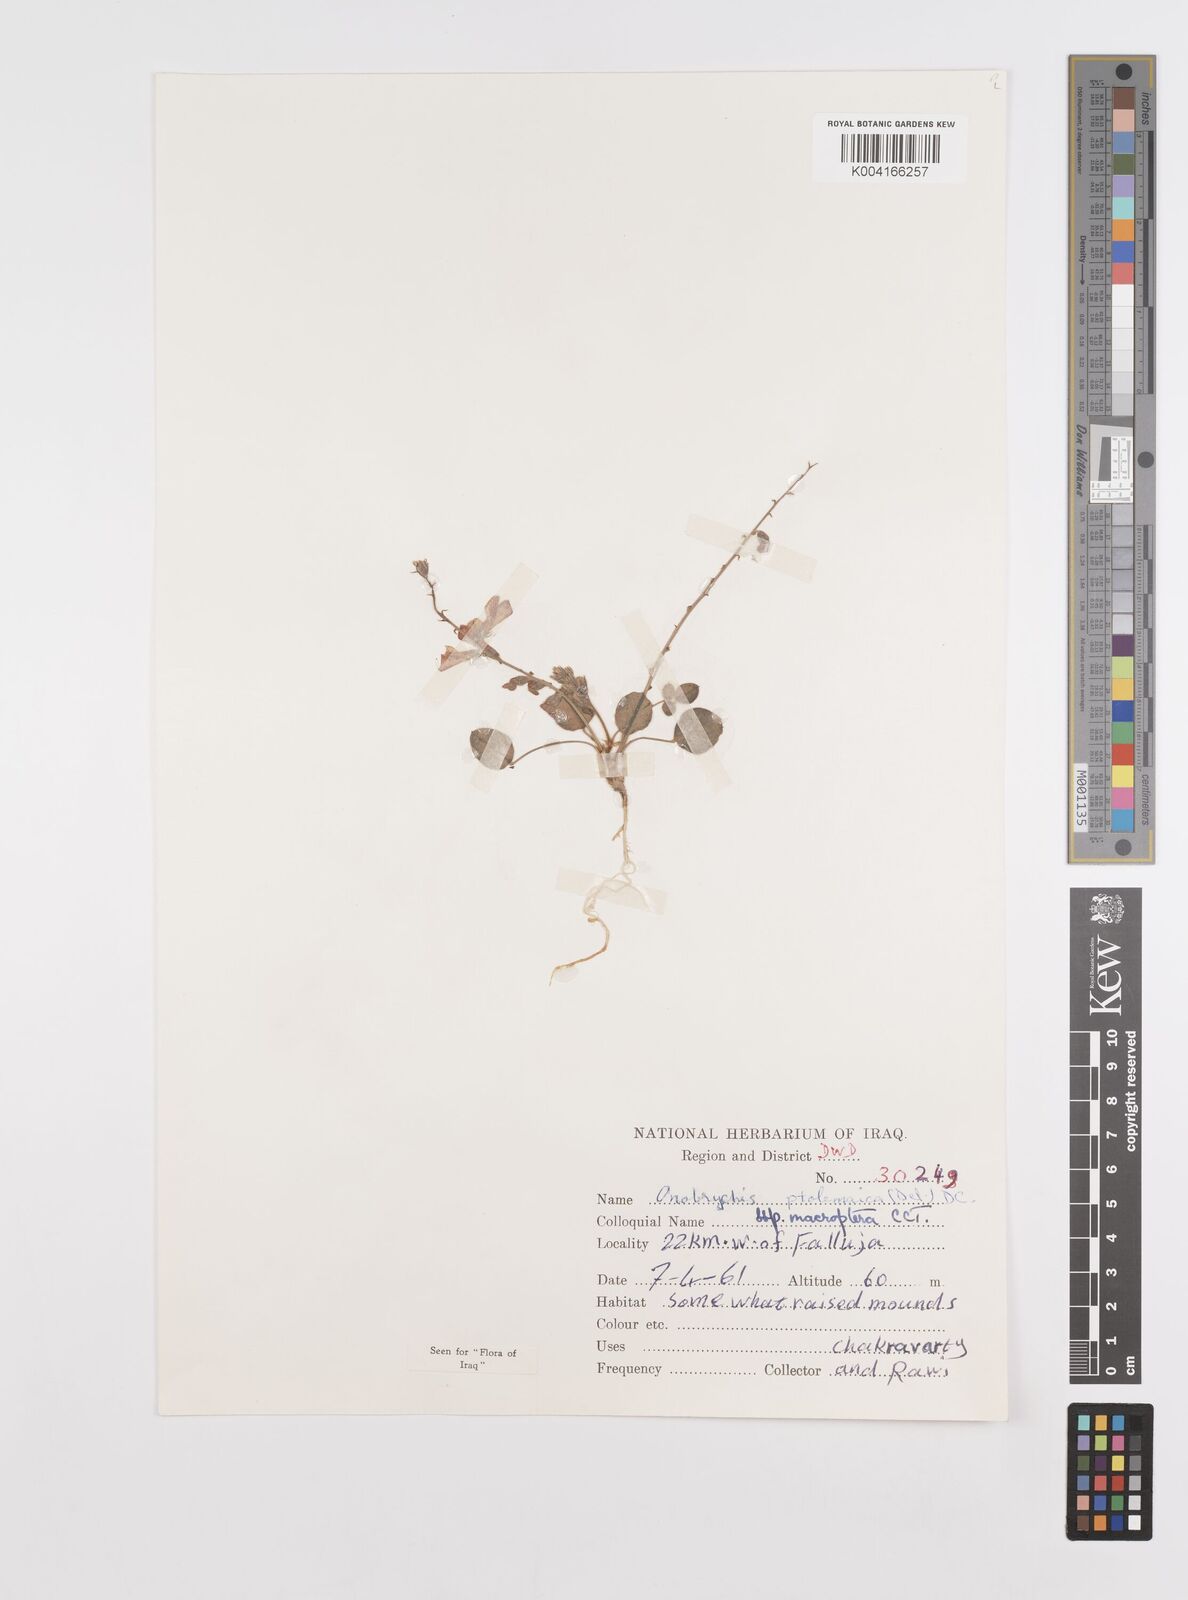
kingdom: Plantae
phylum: Tracheophyta
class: Magnoliopsida
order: Fabales
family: Fabaceae
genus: Onobrychis
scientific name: Onobrychis ptolemaica
